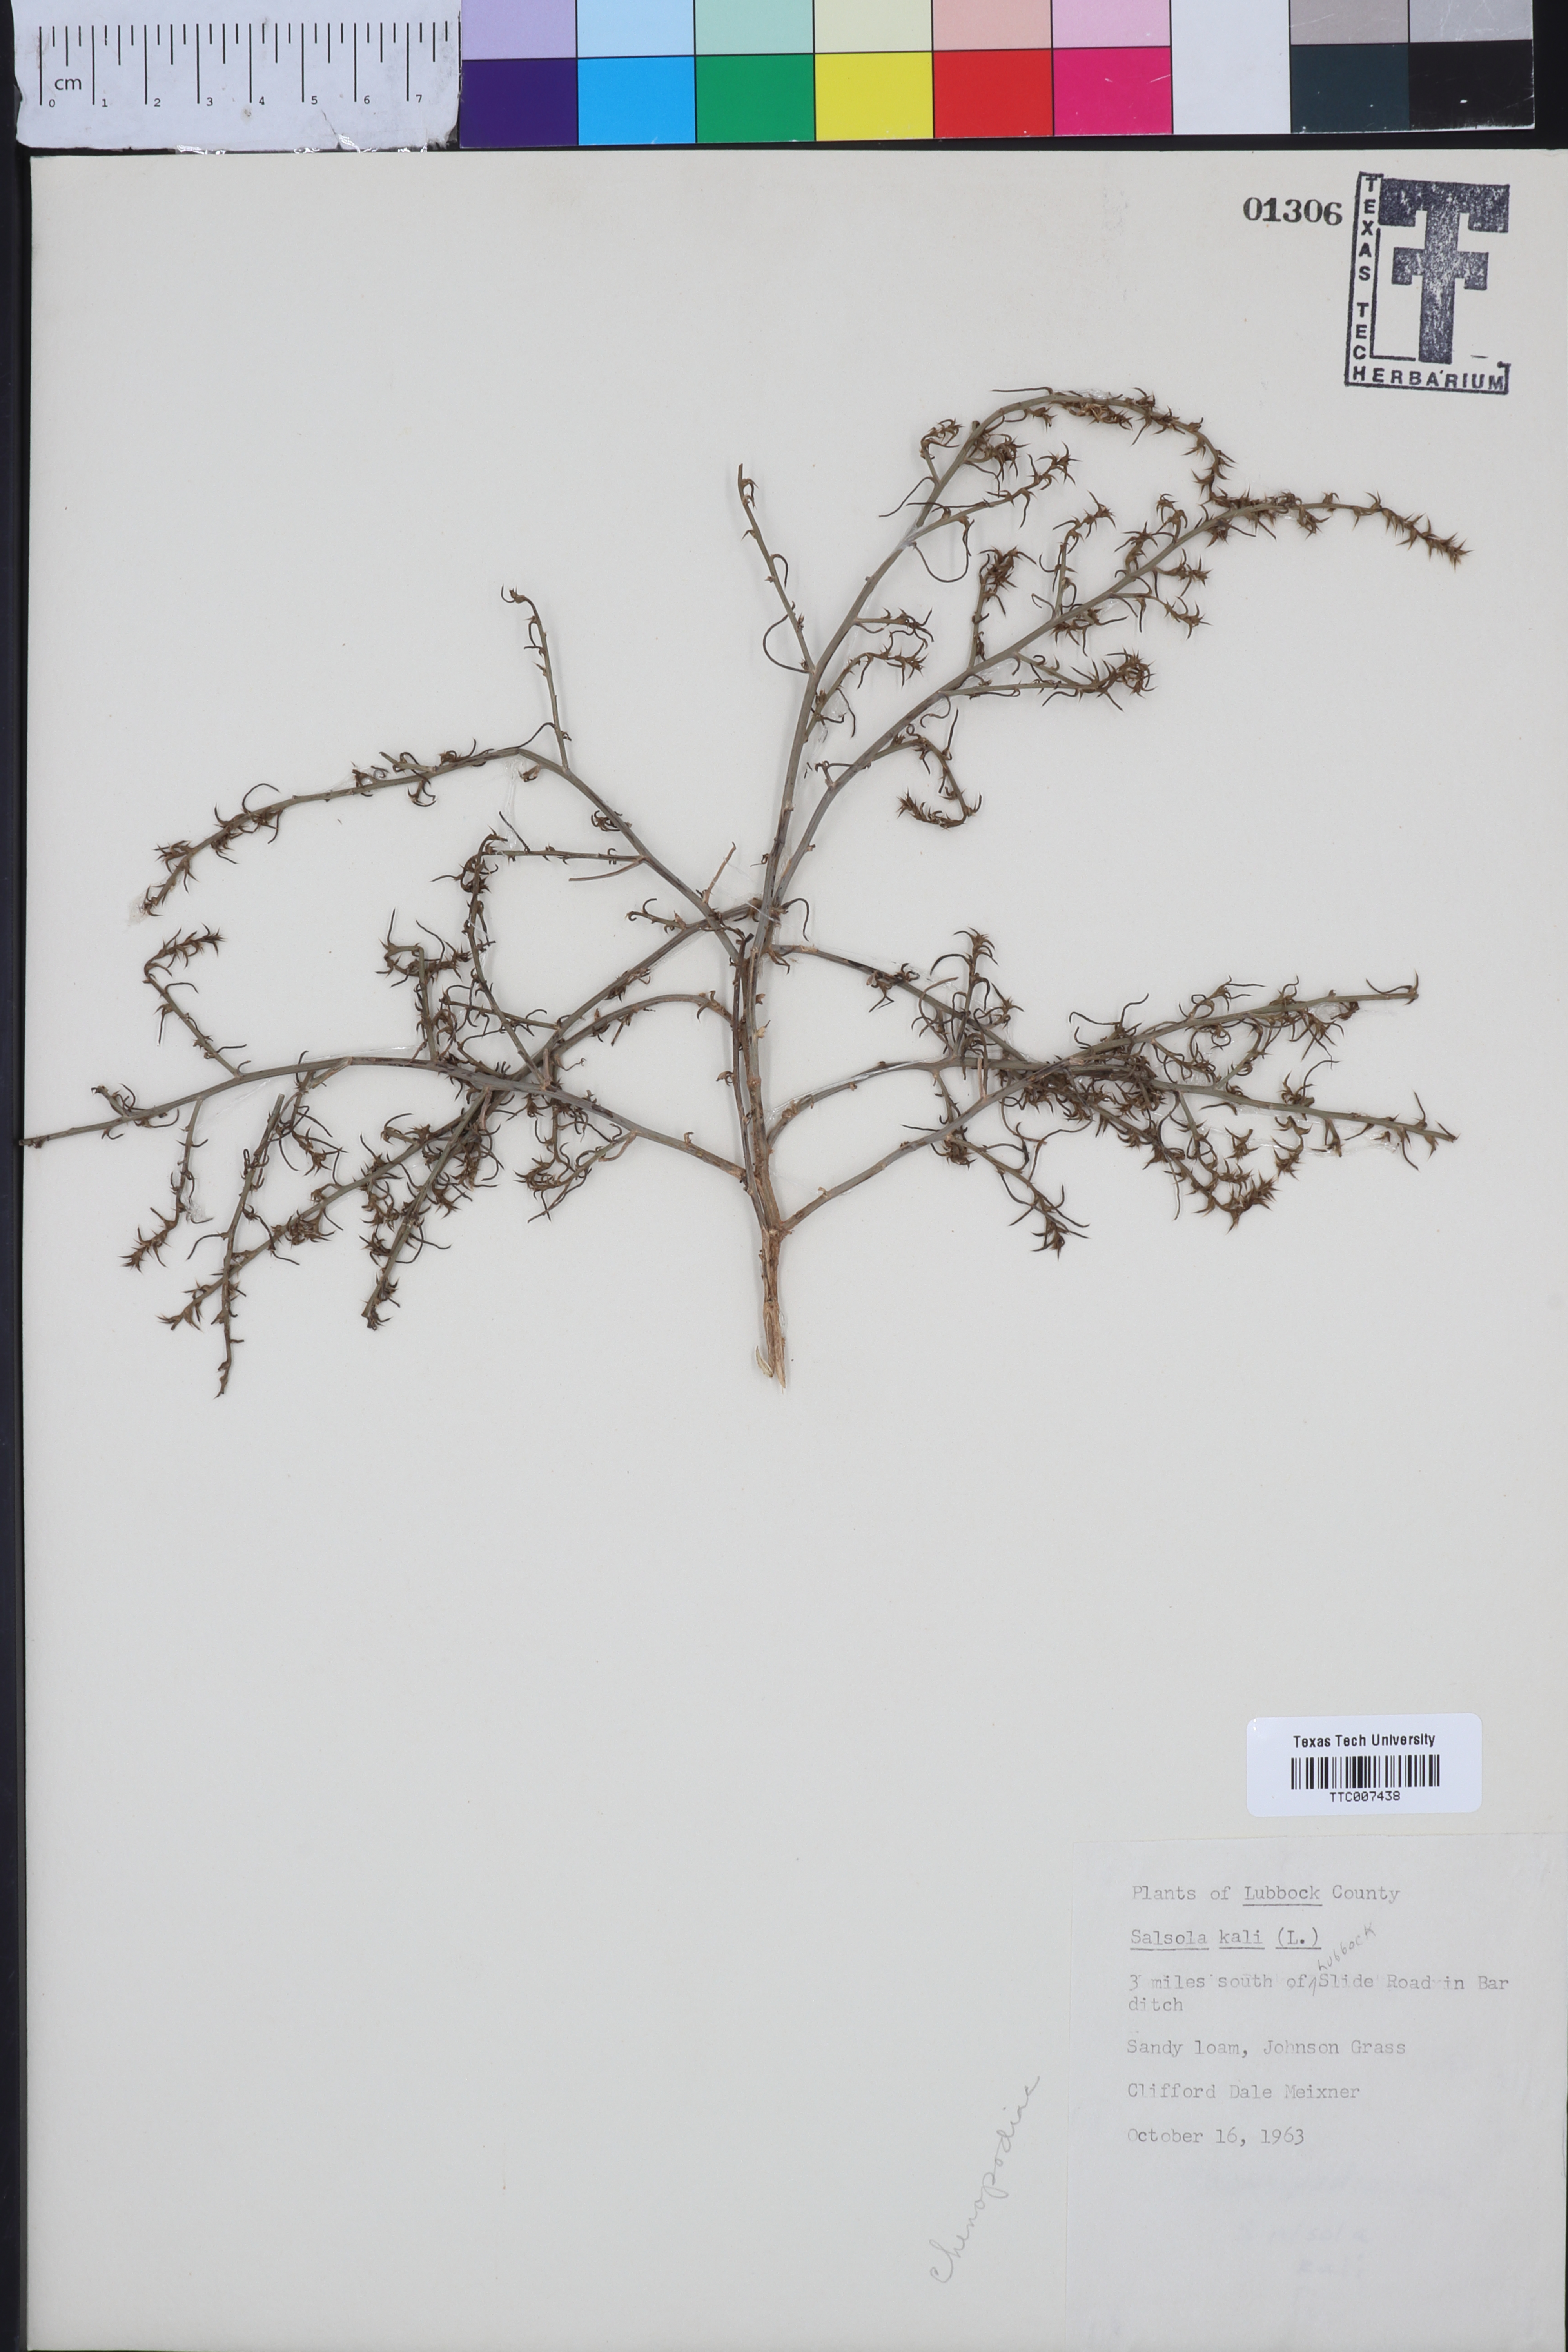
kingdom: Plantae
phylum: Tracheophyta
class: Magnoliopsida
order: Caryophyllales
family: Amaranthaceae
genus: Salsola
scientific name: Salsola kali
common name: Saltwort
